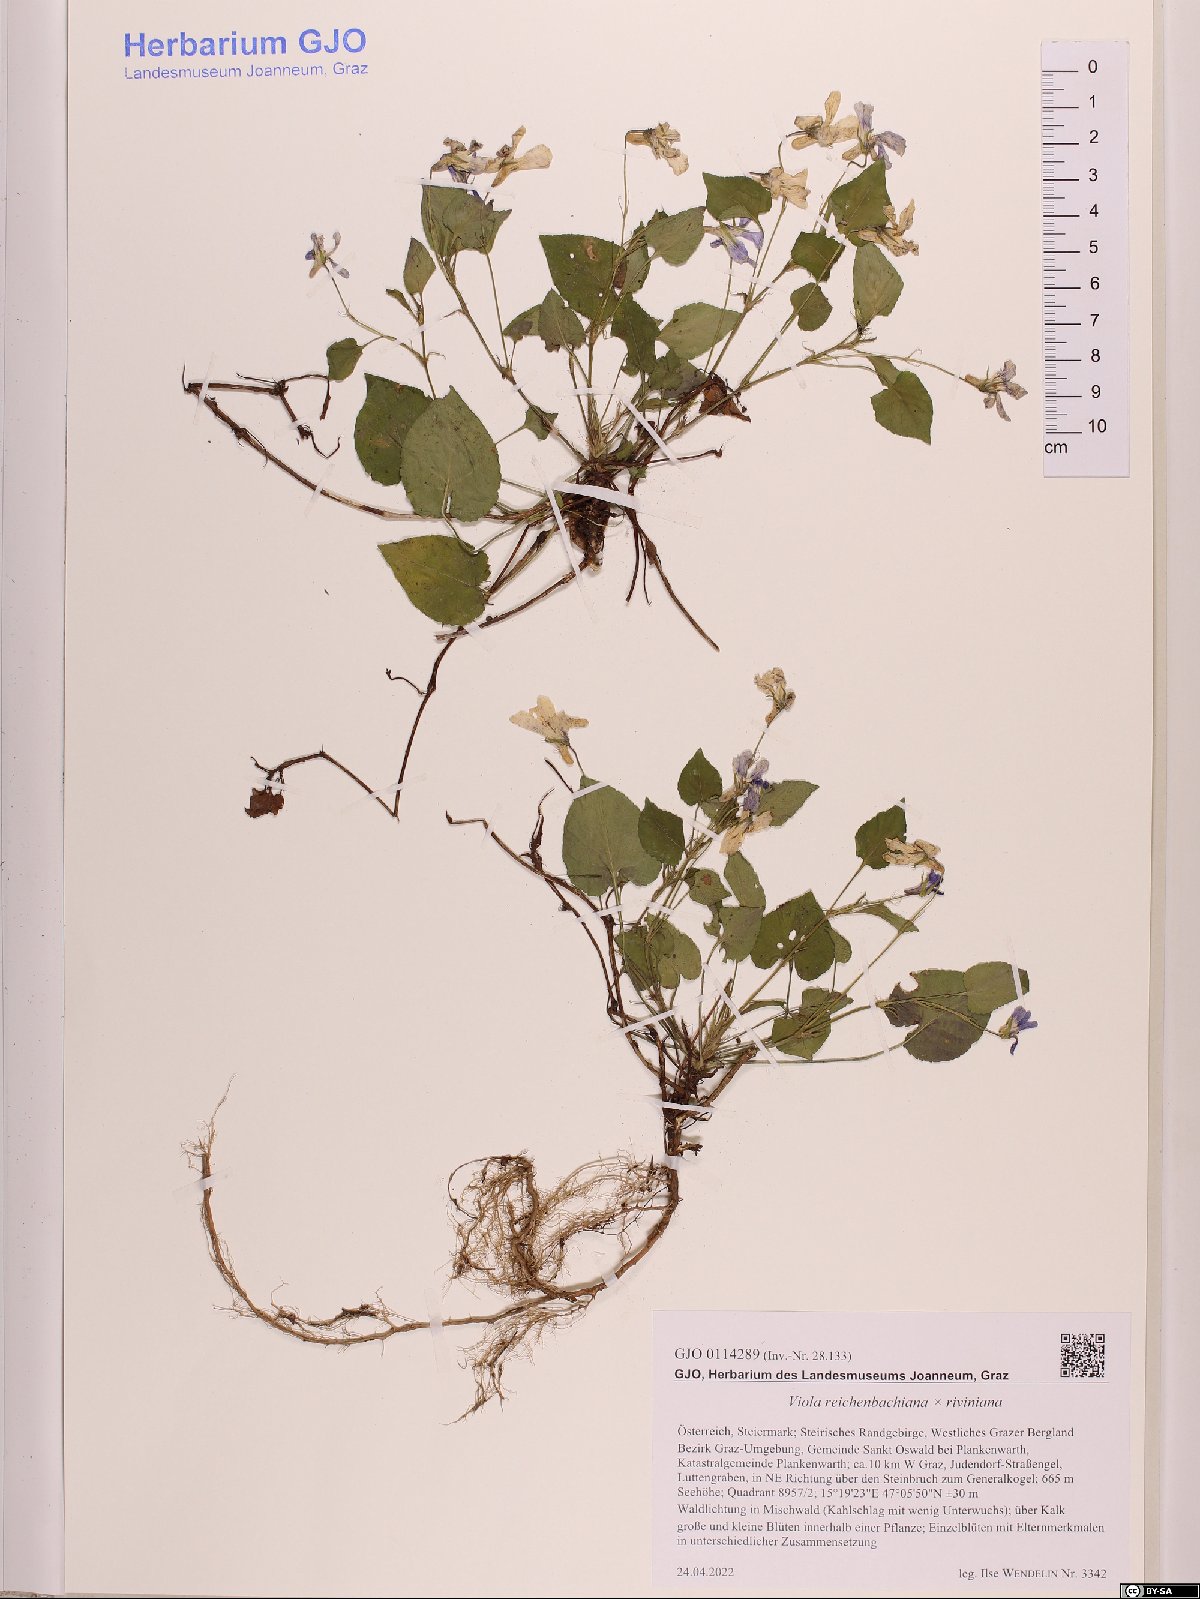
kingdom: Plantae
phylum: Tracheophyta
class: Magnoliopsida
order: Malpighiales
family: Violaceae
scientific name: Violaceae
